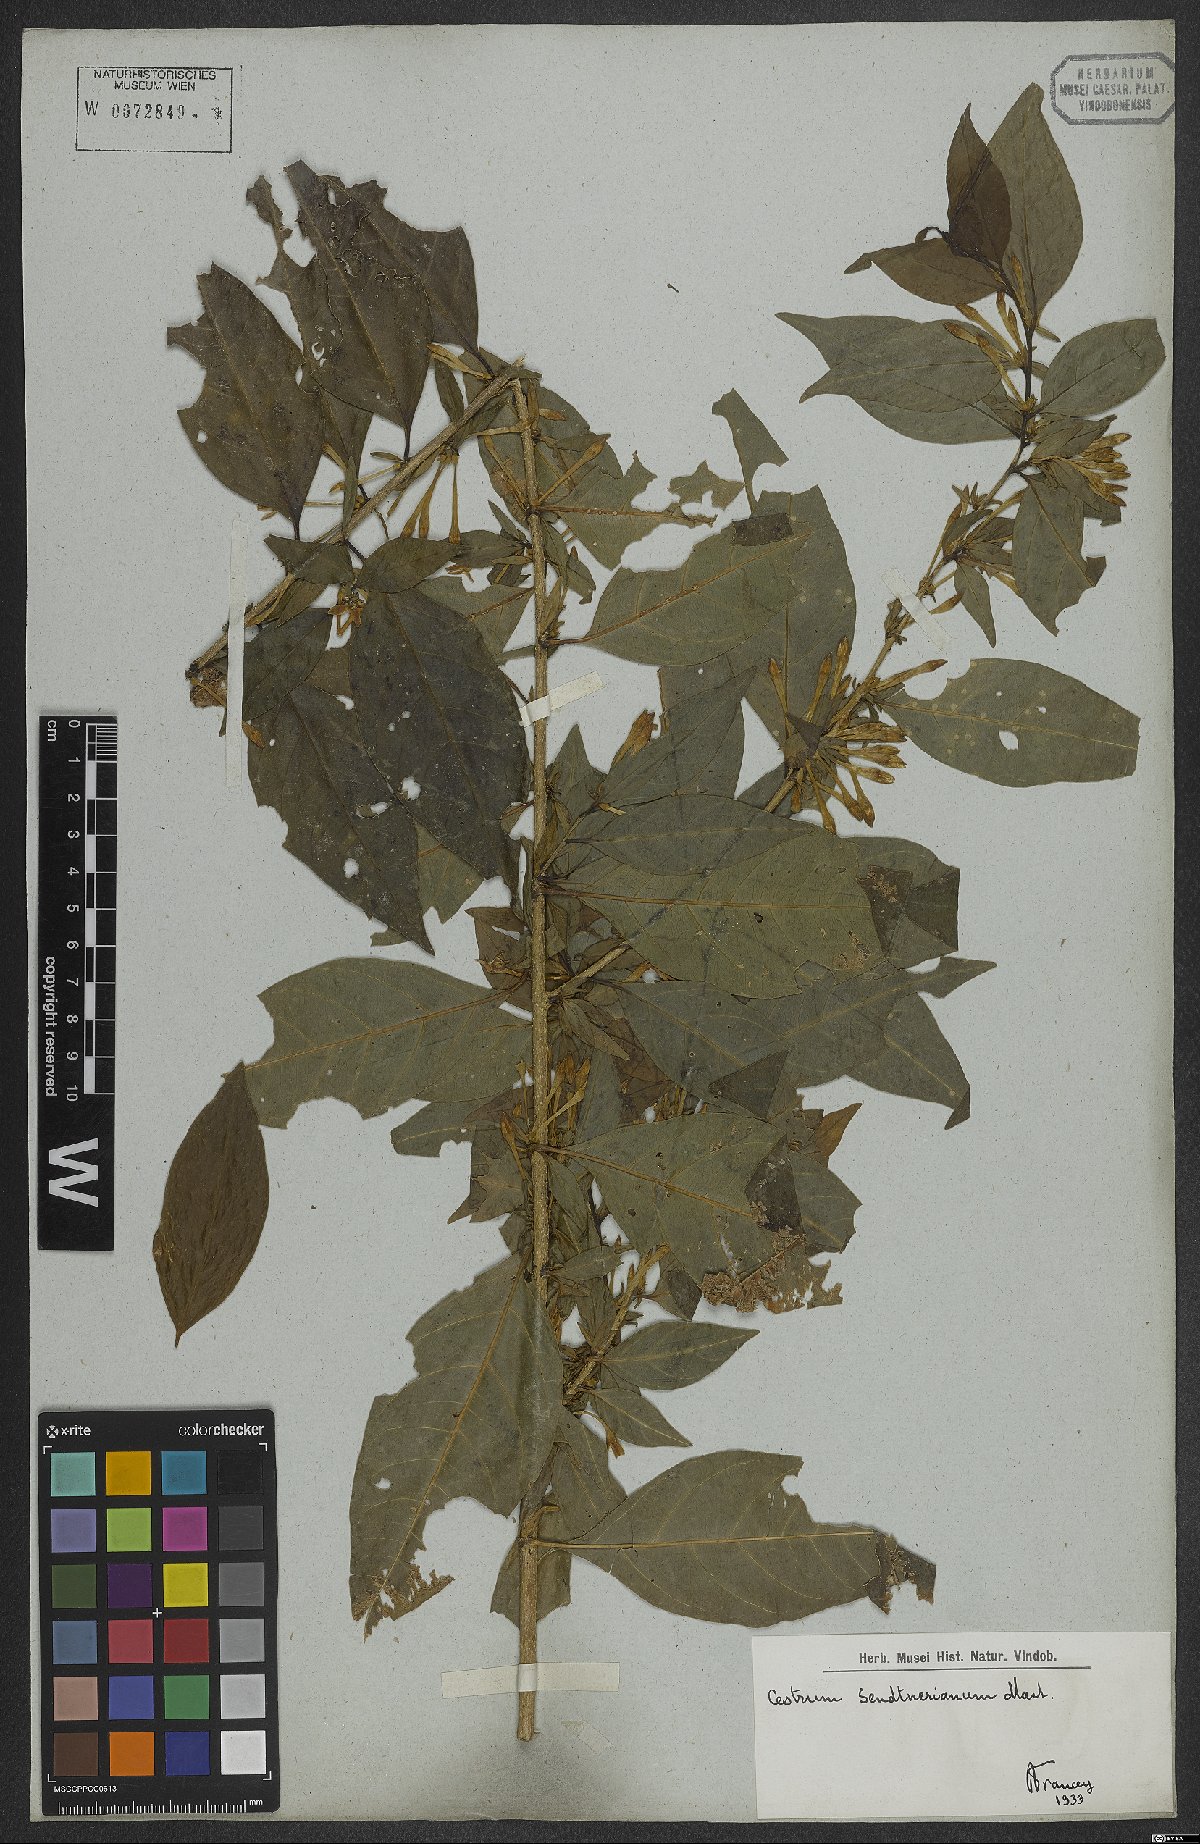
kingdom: Plantae
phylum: Tracheophyta
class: Magnoliopsida
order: Solanales
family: Solanaceae
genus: Cestrum
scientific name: Cestrum mariquitense
